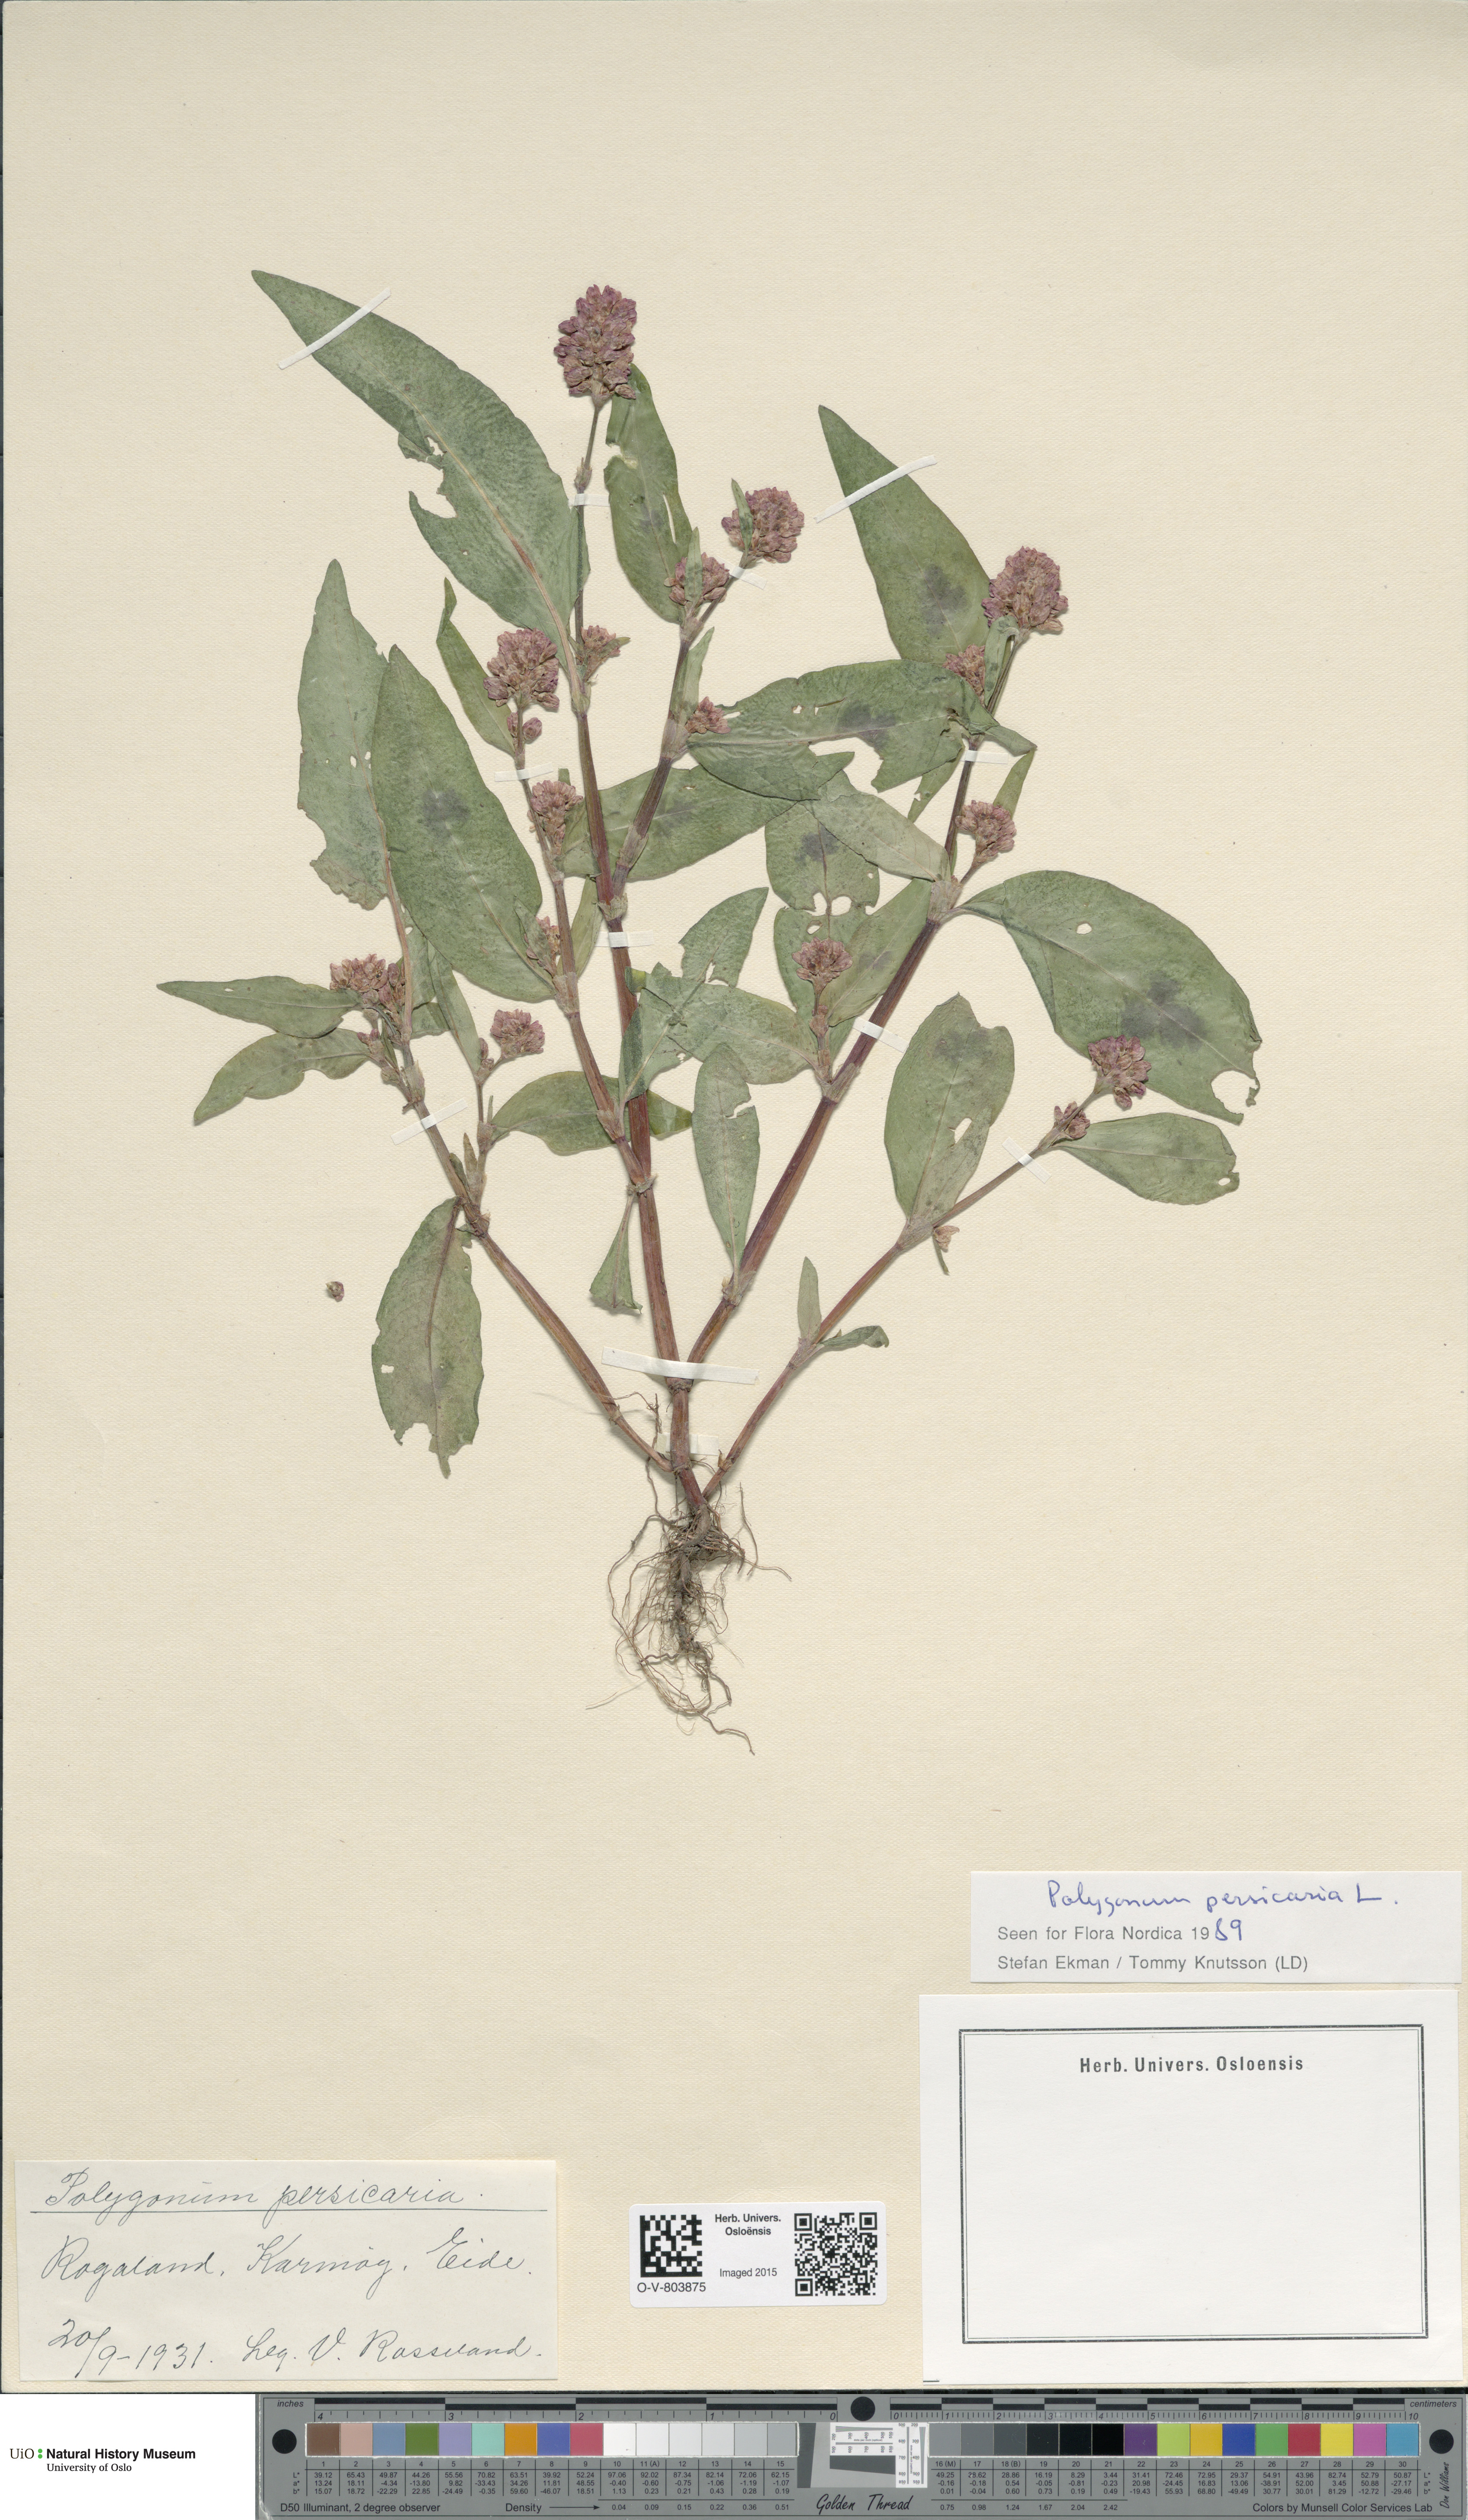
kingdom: Plantae
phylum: Tracheophyta
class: Magnoliopsida
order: Caryophyllales
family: Polygonaceae
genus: Persicaria
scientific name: Persicaria maculosa
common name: Redshank
